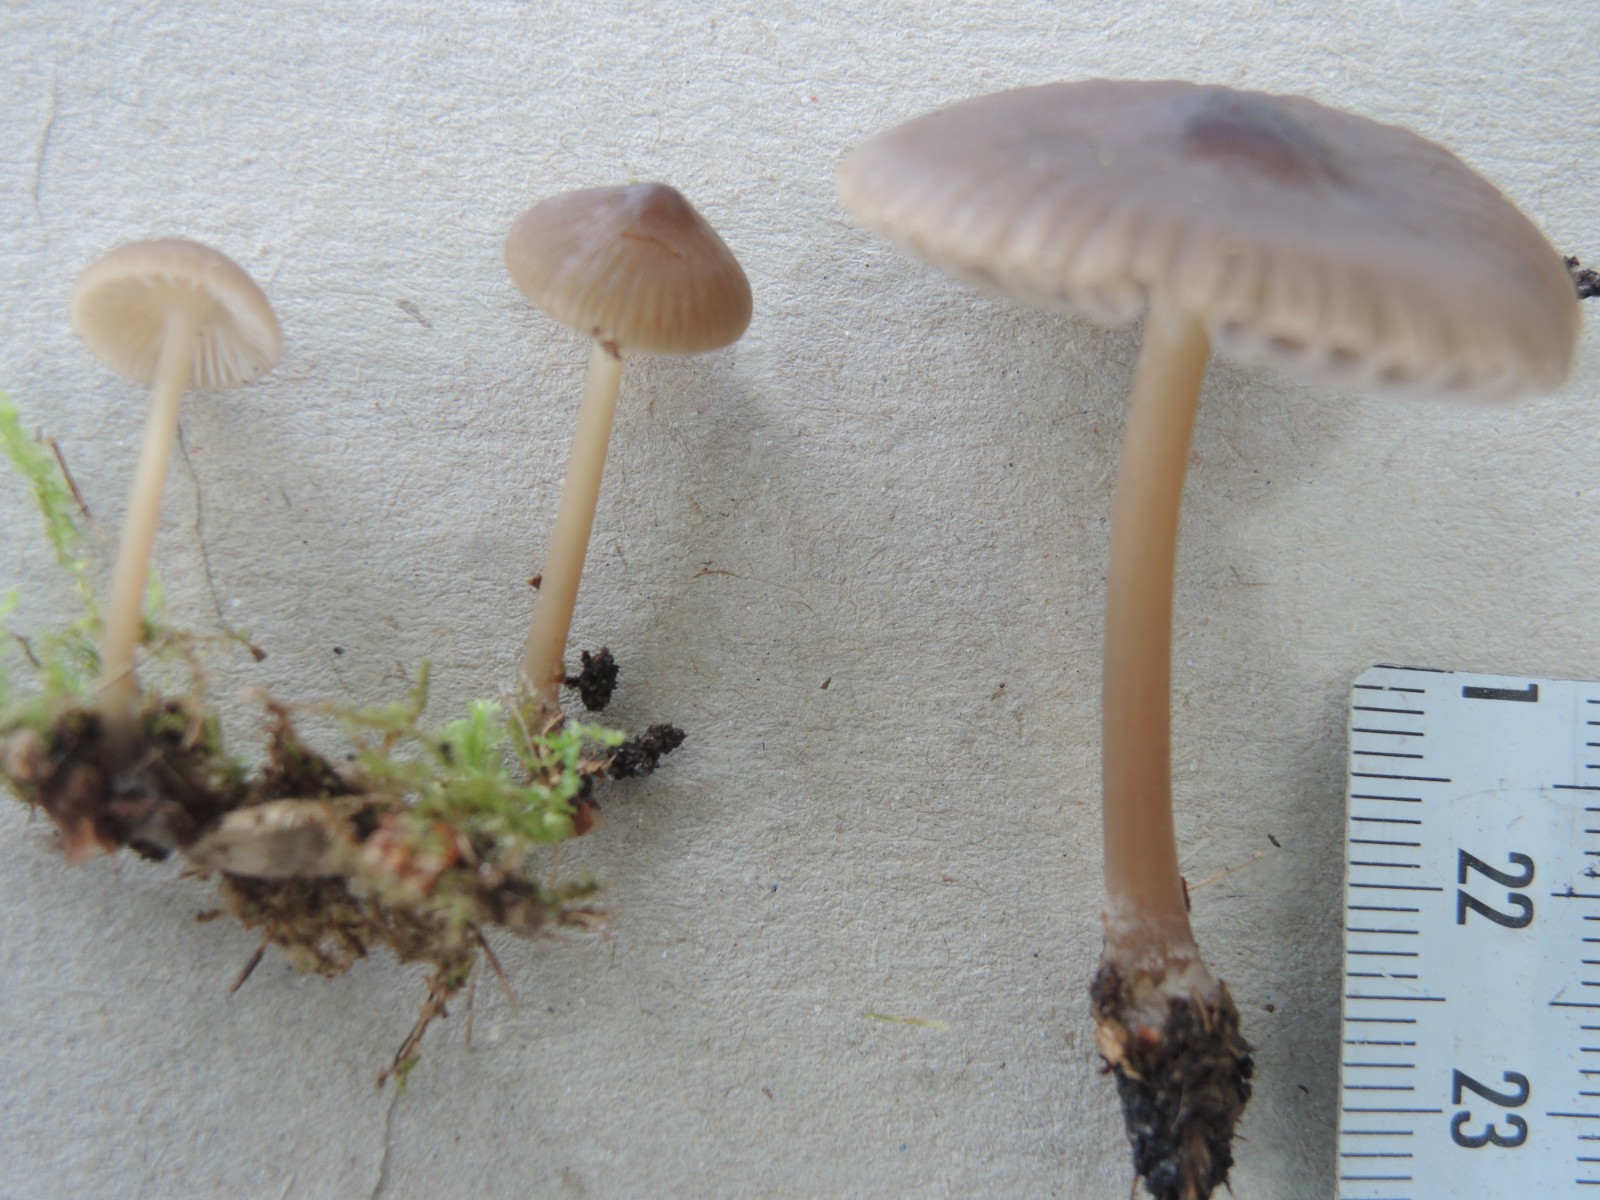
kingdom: Fungi
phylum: Basidiomycota
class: Agaricomycetes
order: Agaricales
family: Mycenaceae
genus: Mycena
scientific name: Mycena megaspora
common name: brusk-huesvamp
